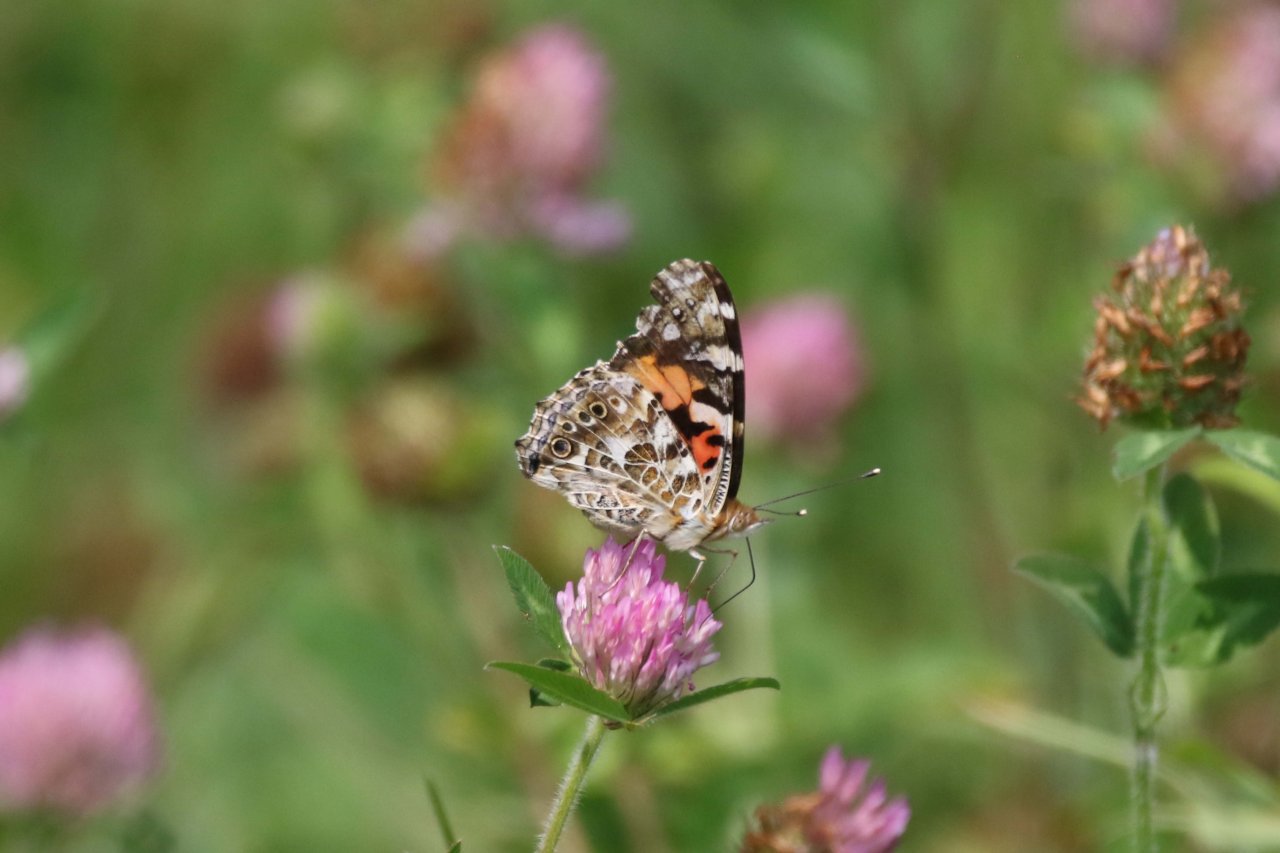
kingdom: Animalia
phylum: Arthropoda
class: Insecta
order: Lepidoptera
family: Nymphalidae
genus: Vanessa
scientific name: Vanessa cardui
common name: Painted Lady
